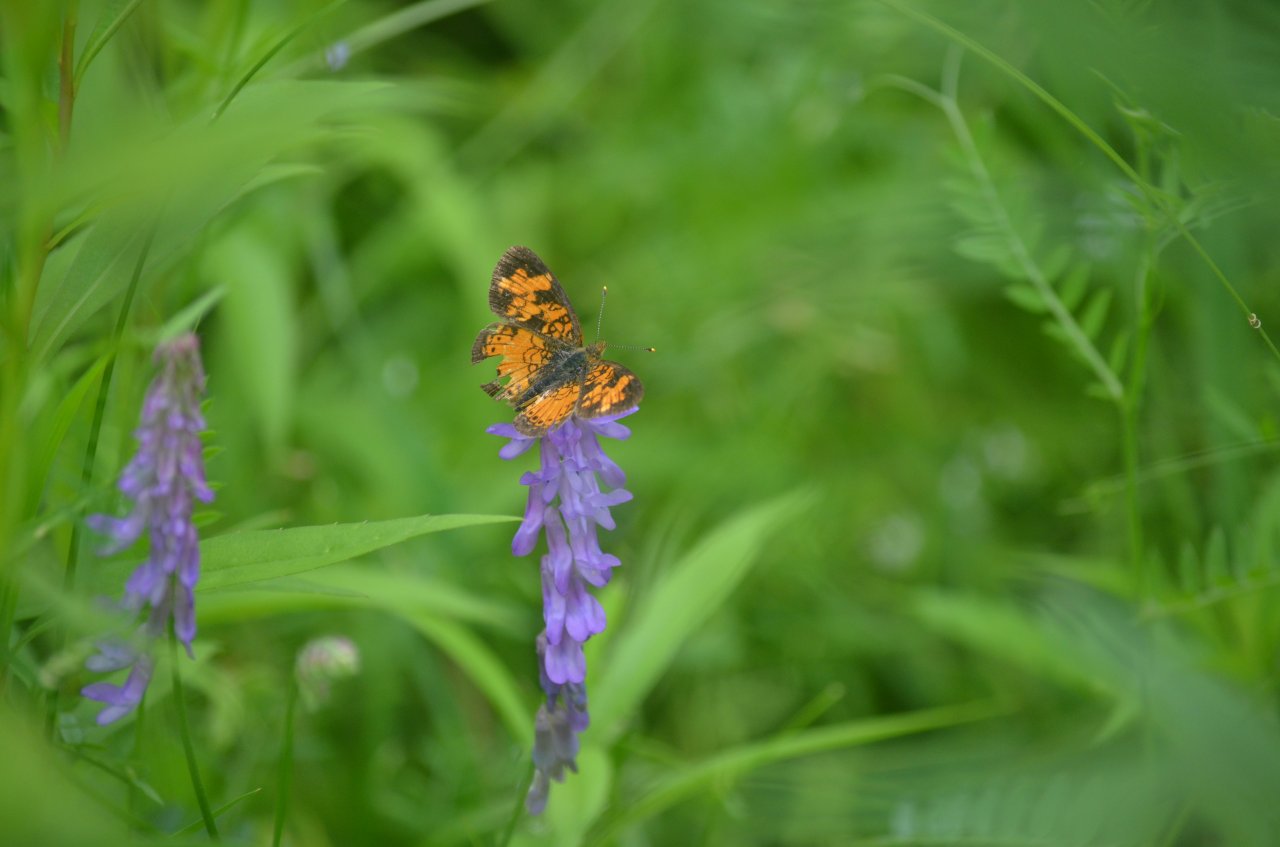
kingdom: Animalia
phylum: Arthropoda
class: Insecta
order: Lepidoptera
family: Nymphalidae
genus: Phyciodes
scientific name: Phyciodes tharos
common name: Northern Crescent
